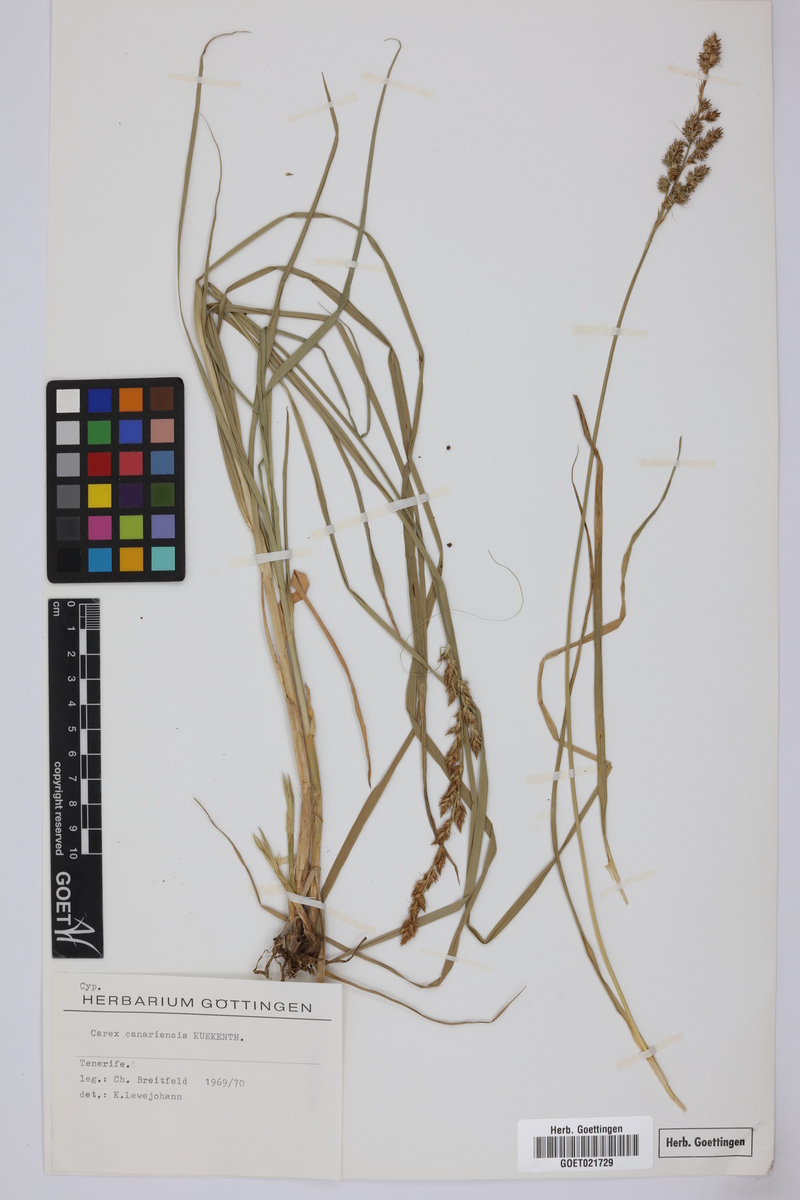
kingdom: Plantae
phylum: Tracheophyta
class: Liliopsida
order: Poales
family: Cyperaceae
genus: Carex
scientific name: Carex canariensis
